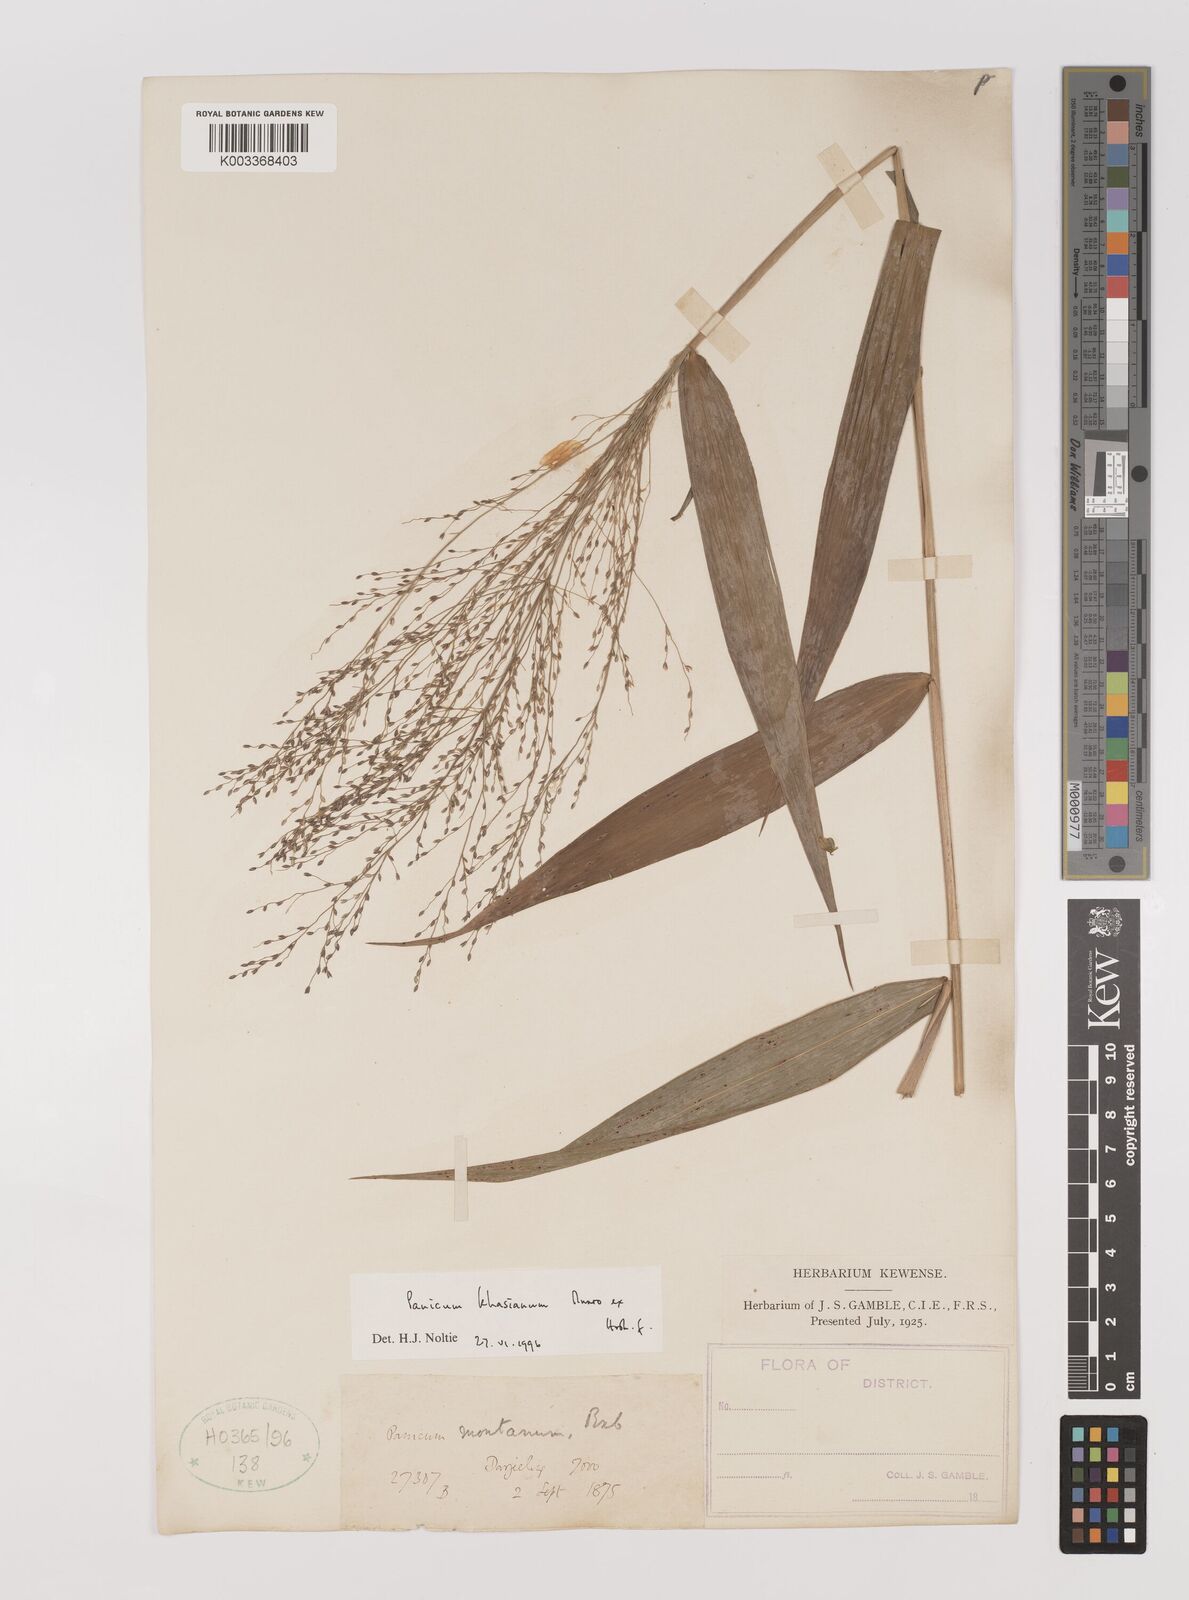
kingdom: Plantae
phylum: Tracheophyta
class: Liliopsida
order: Poales
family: Poaceae
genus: Panicum
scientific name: Panicum khasianum
